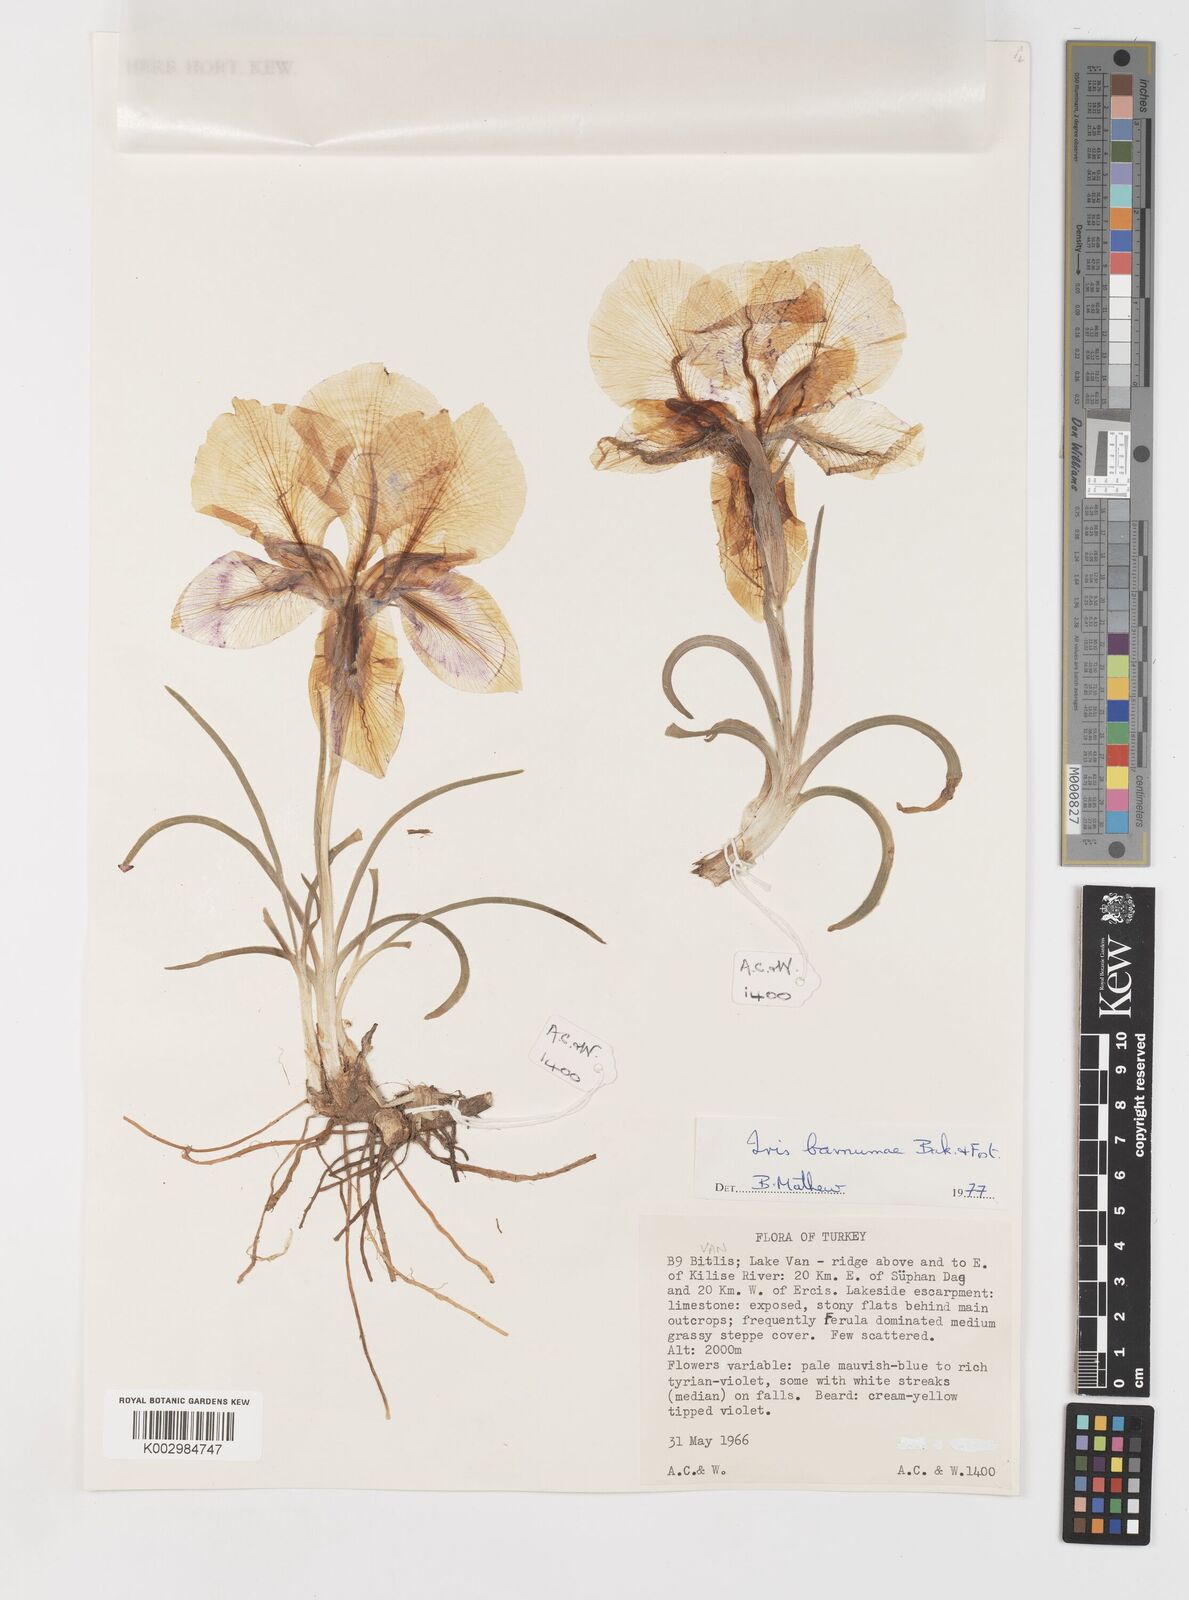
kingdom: Plantae
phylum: Tracheophyta
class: Liliopsida
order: Asparagales
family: Iridaceae
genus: Iris
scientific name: Iris barnumiae
